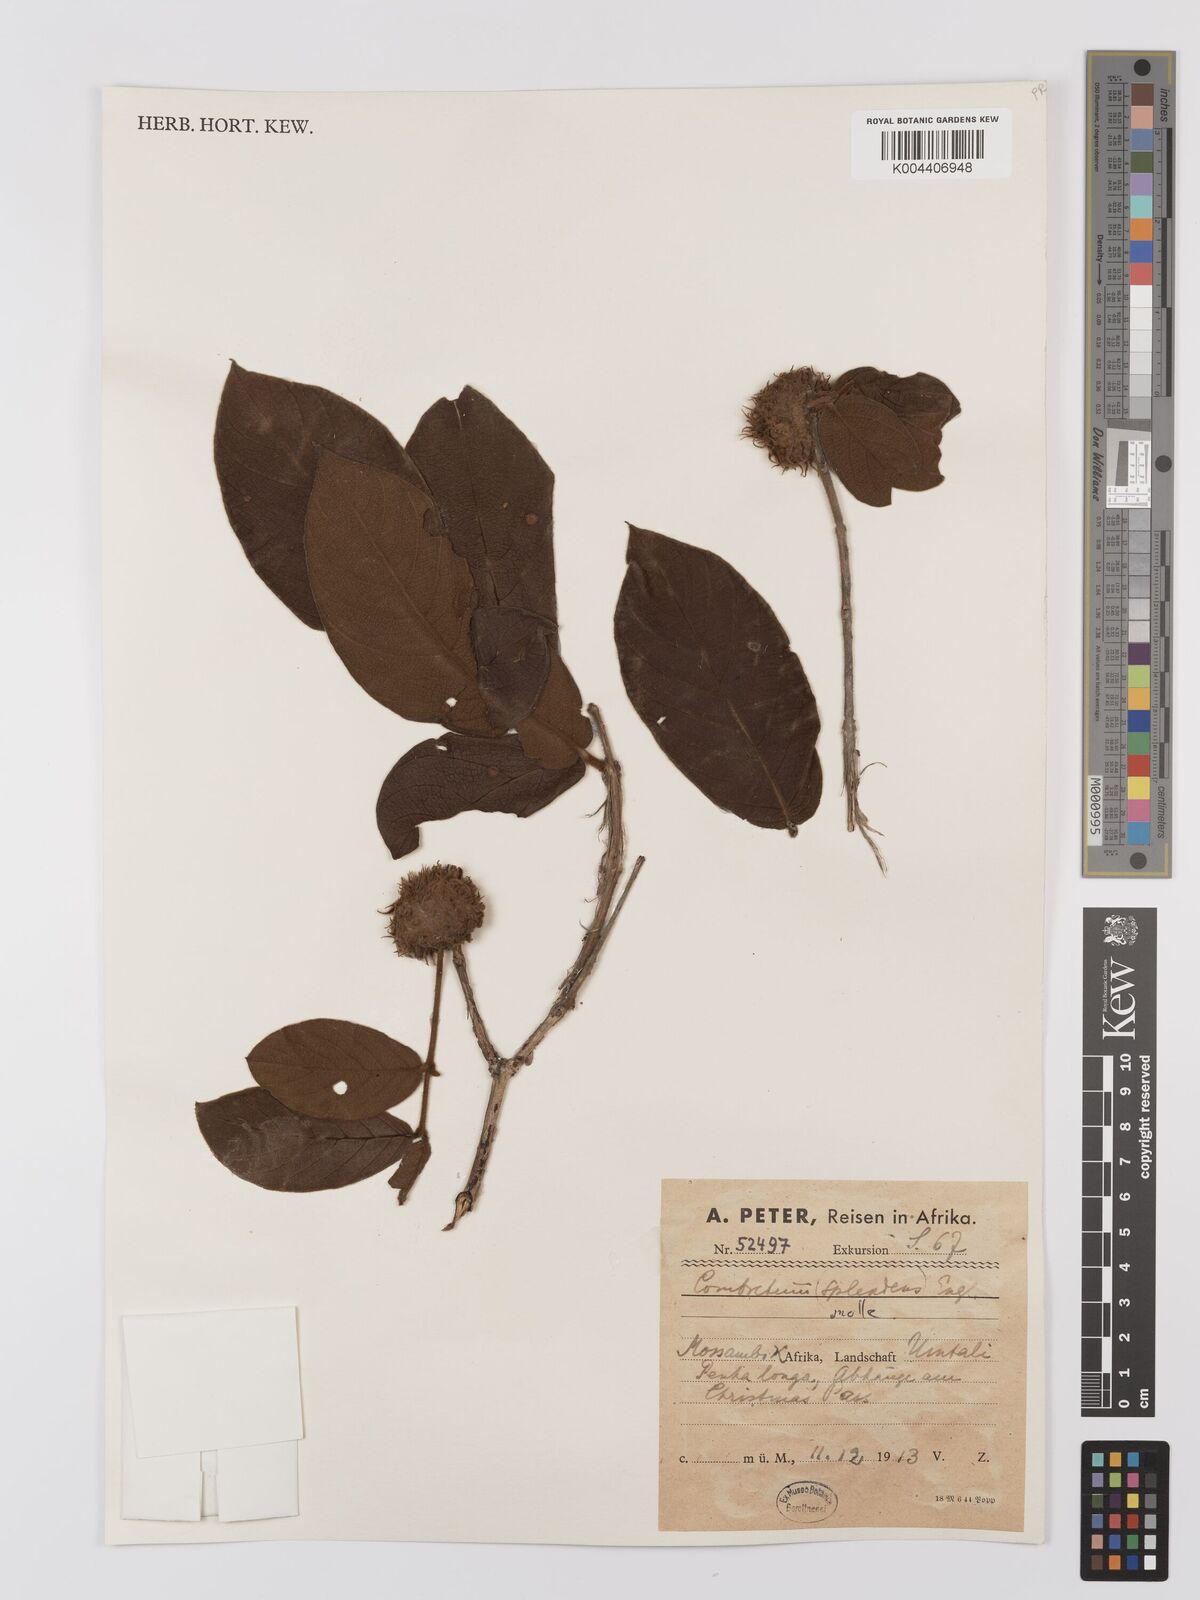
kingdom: Plantae
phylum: Tracheophyta
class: Magnoliopsida
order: Myrtales
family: Combretaceae
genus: Combretum
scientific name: Combretum
